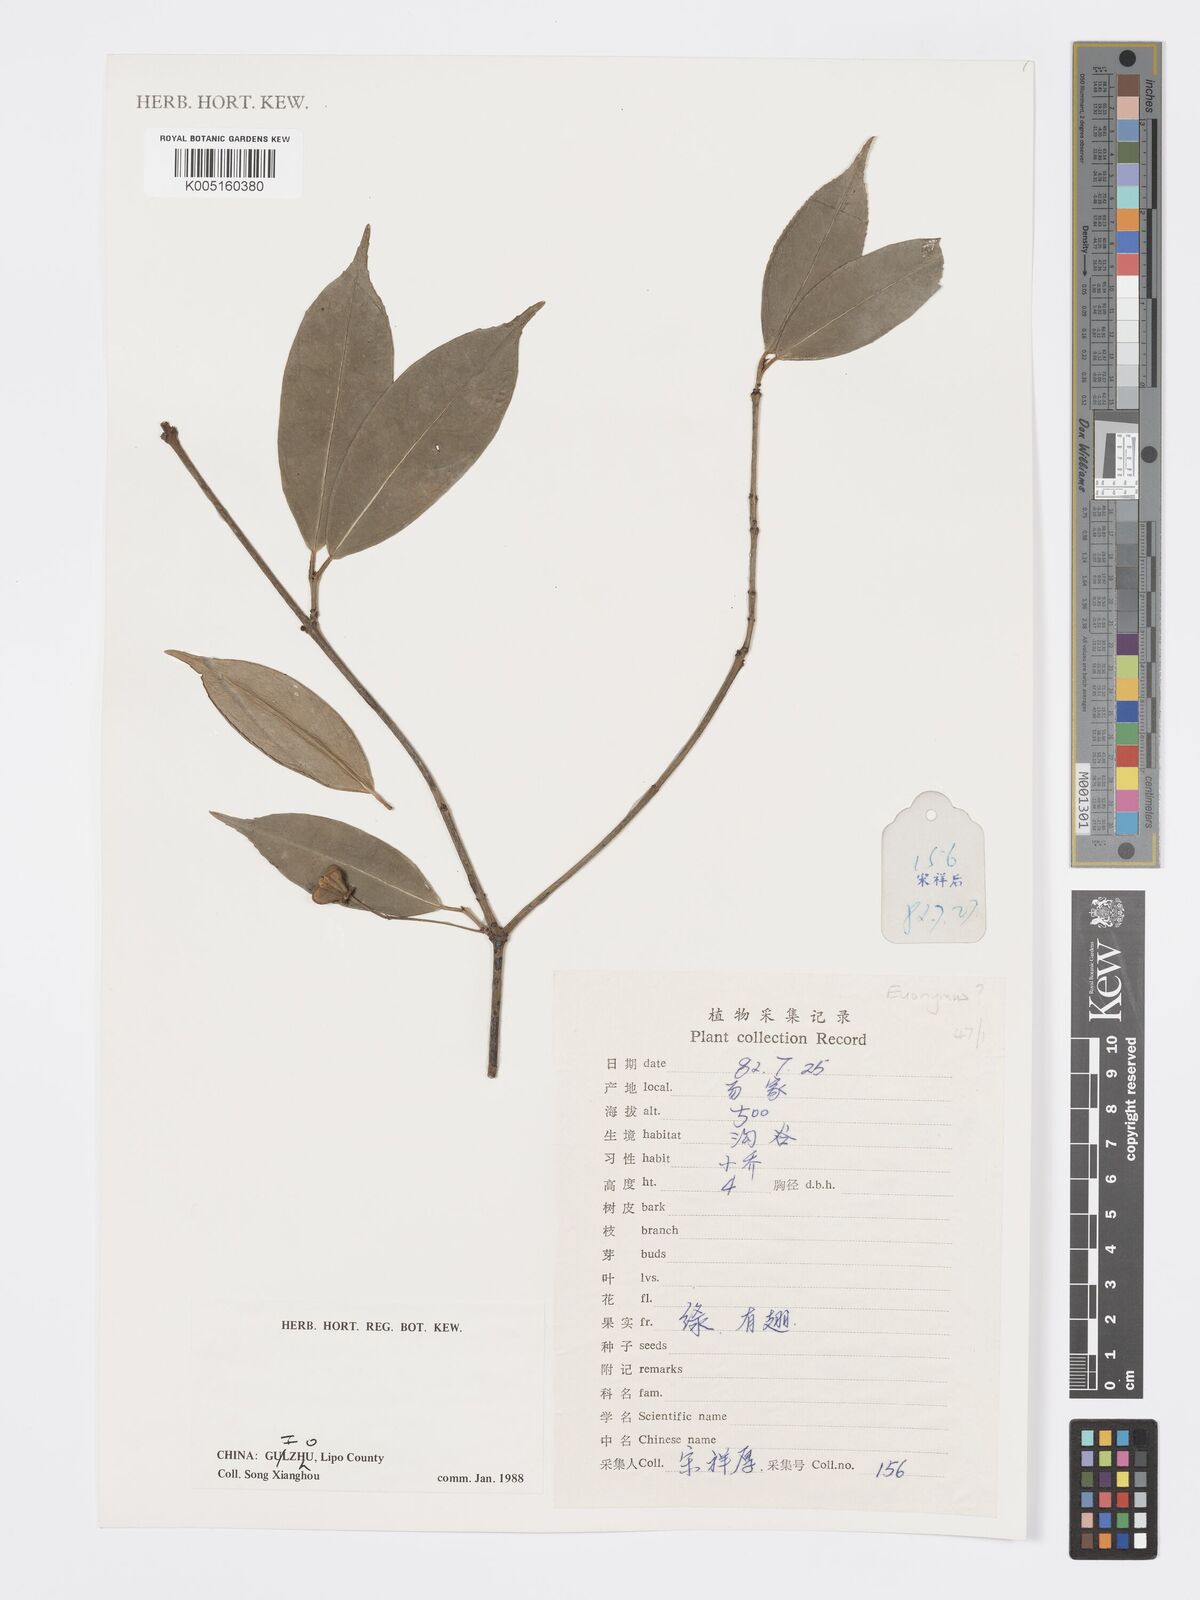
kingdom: Plantae
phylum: Tracheophyta
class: Magnoliopsida
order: Celastrales
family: Celastraceae
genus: Euonymus
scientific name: Euonymus
